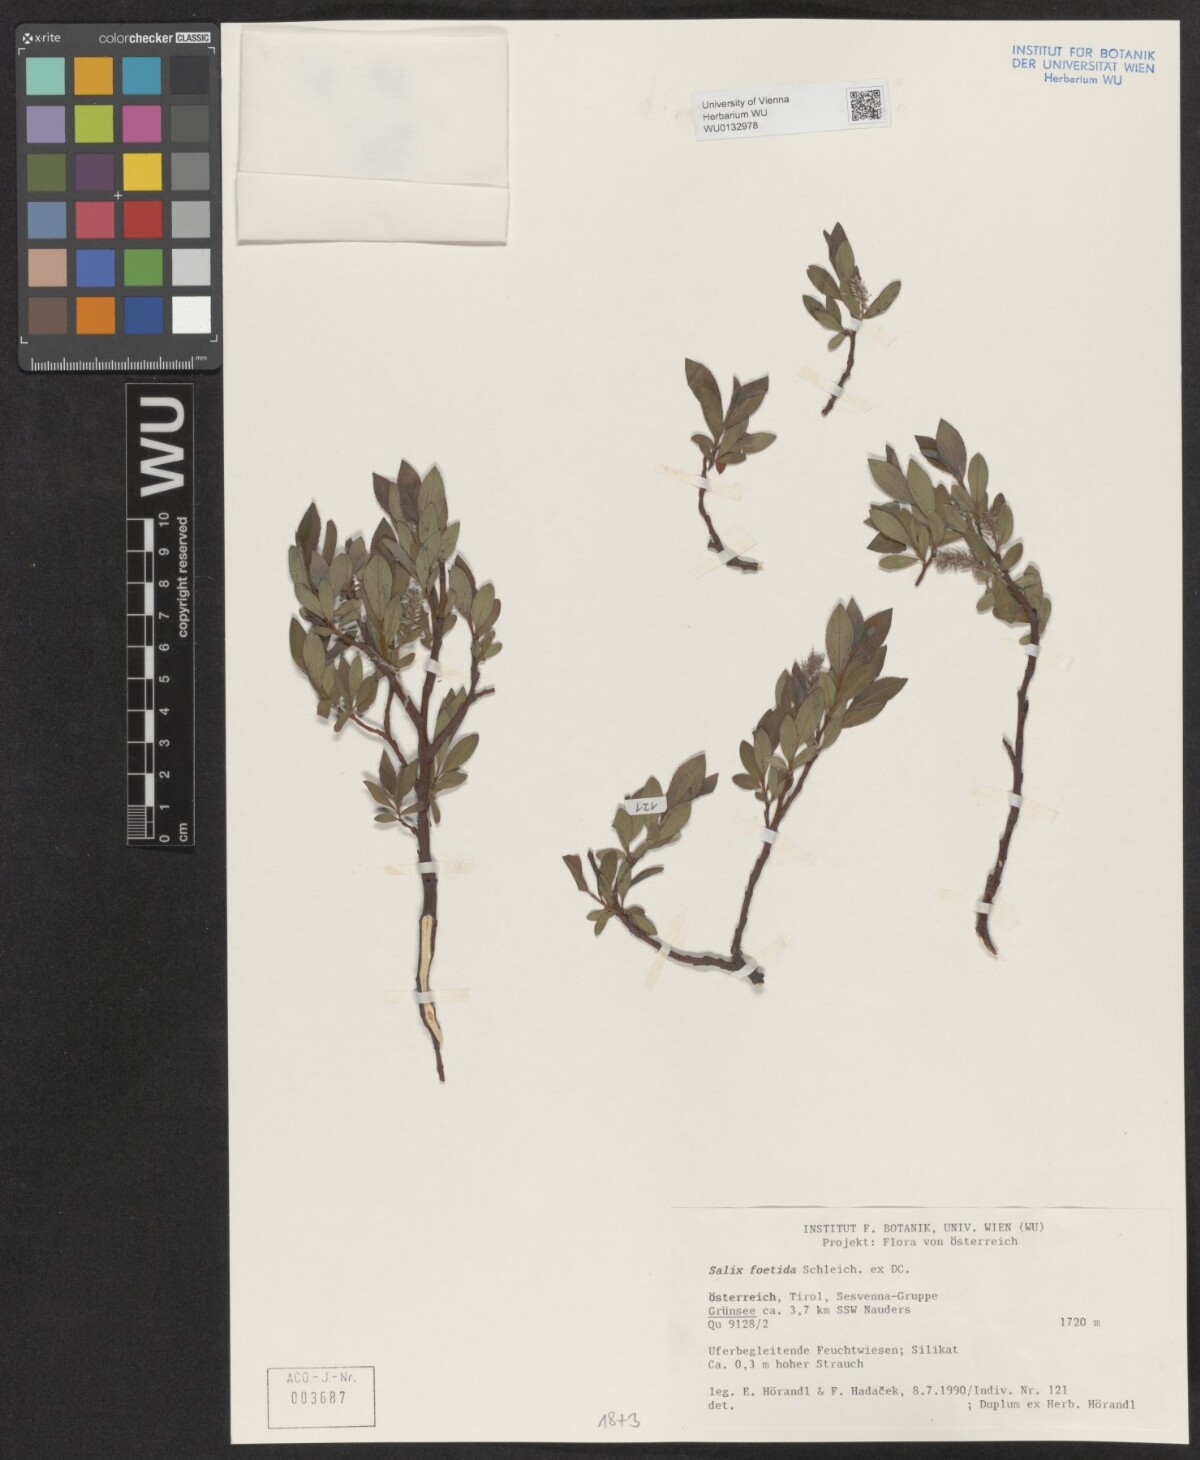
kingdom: Plantae
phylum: Tracheophyta
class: Magnoliopsida
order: Malpighiales
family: Salicaceae
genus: Salix
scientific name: Salix foetida
